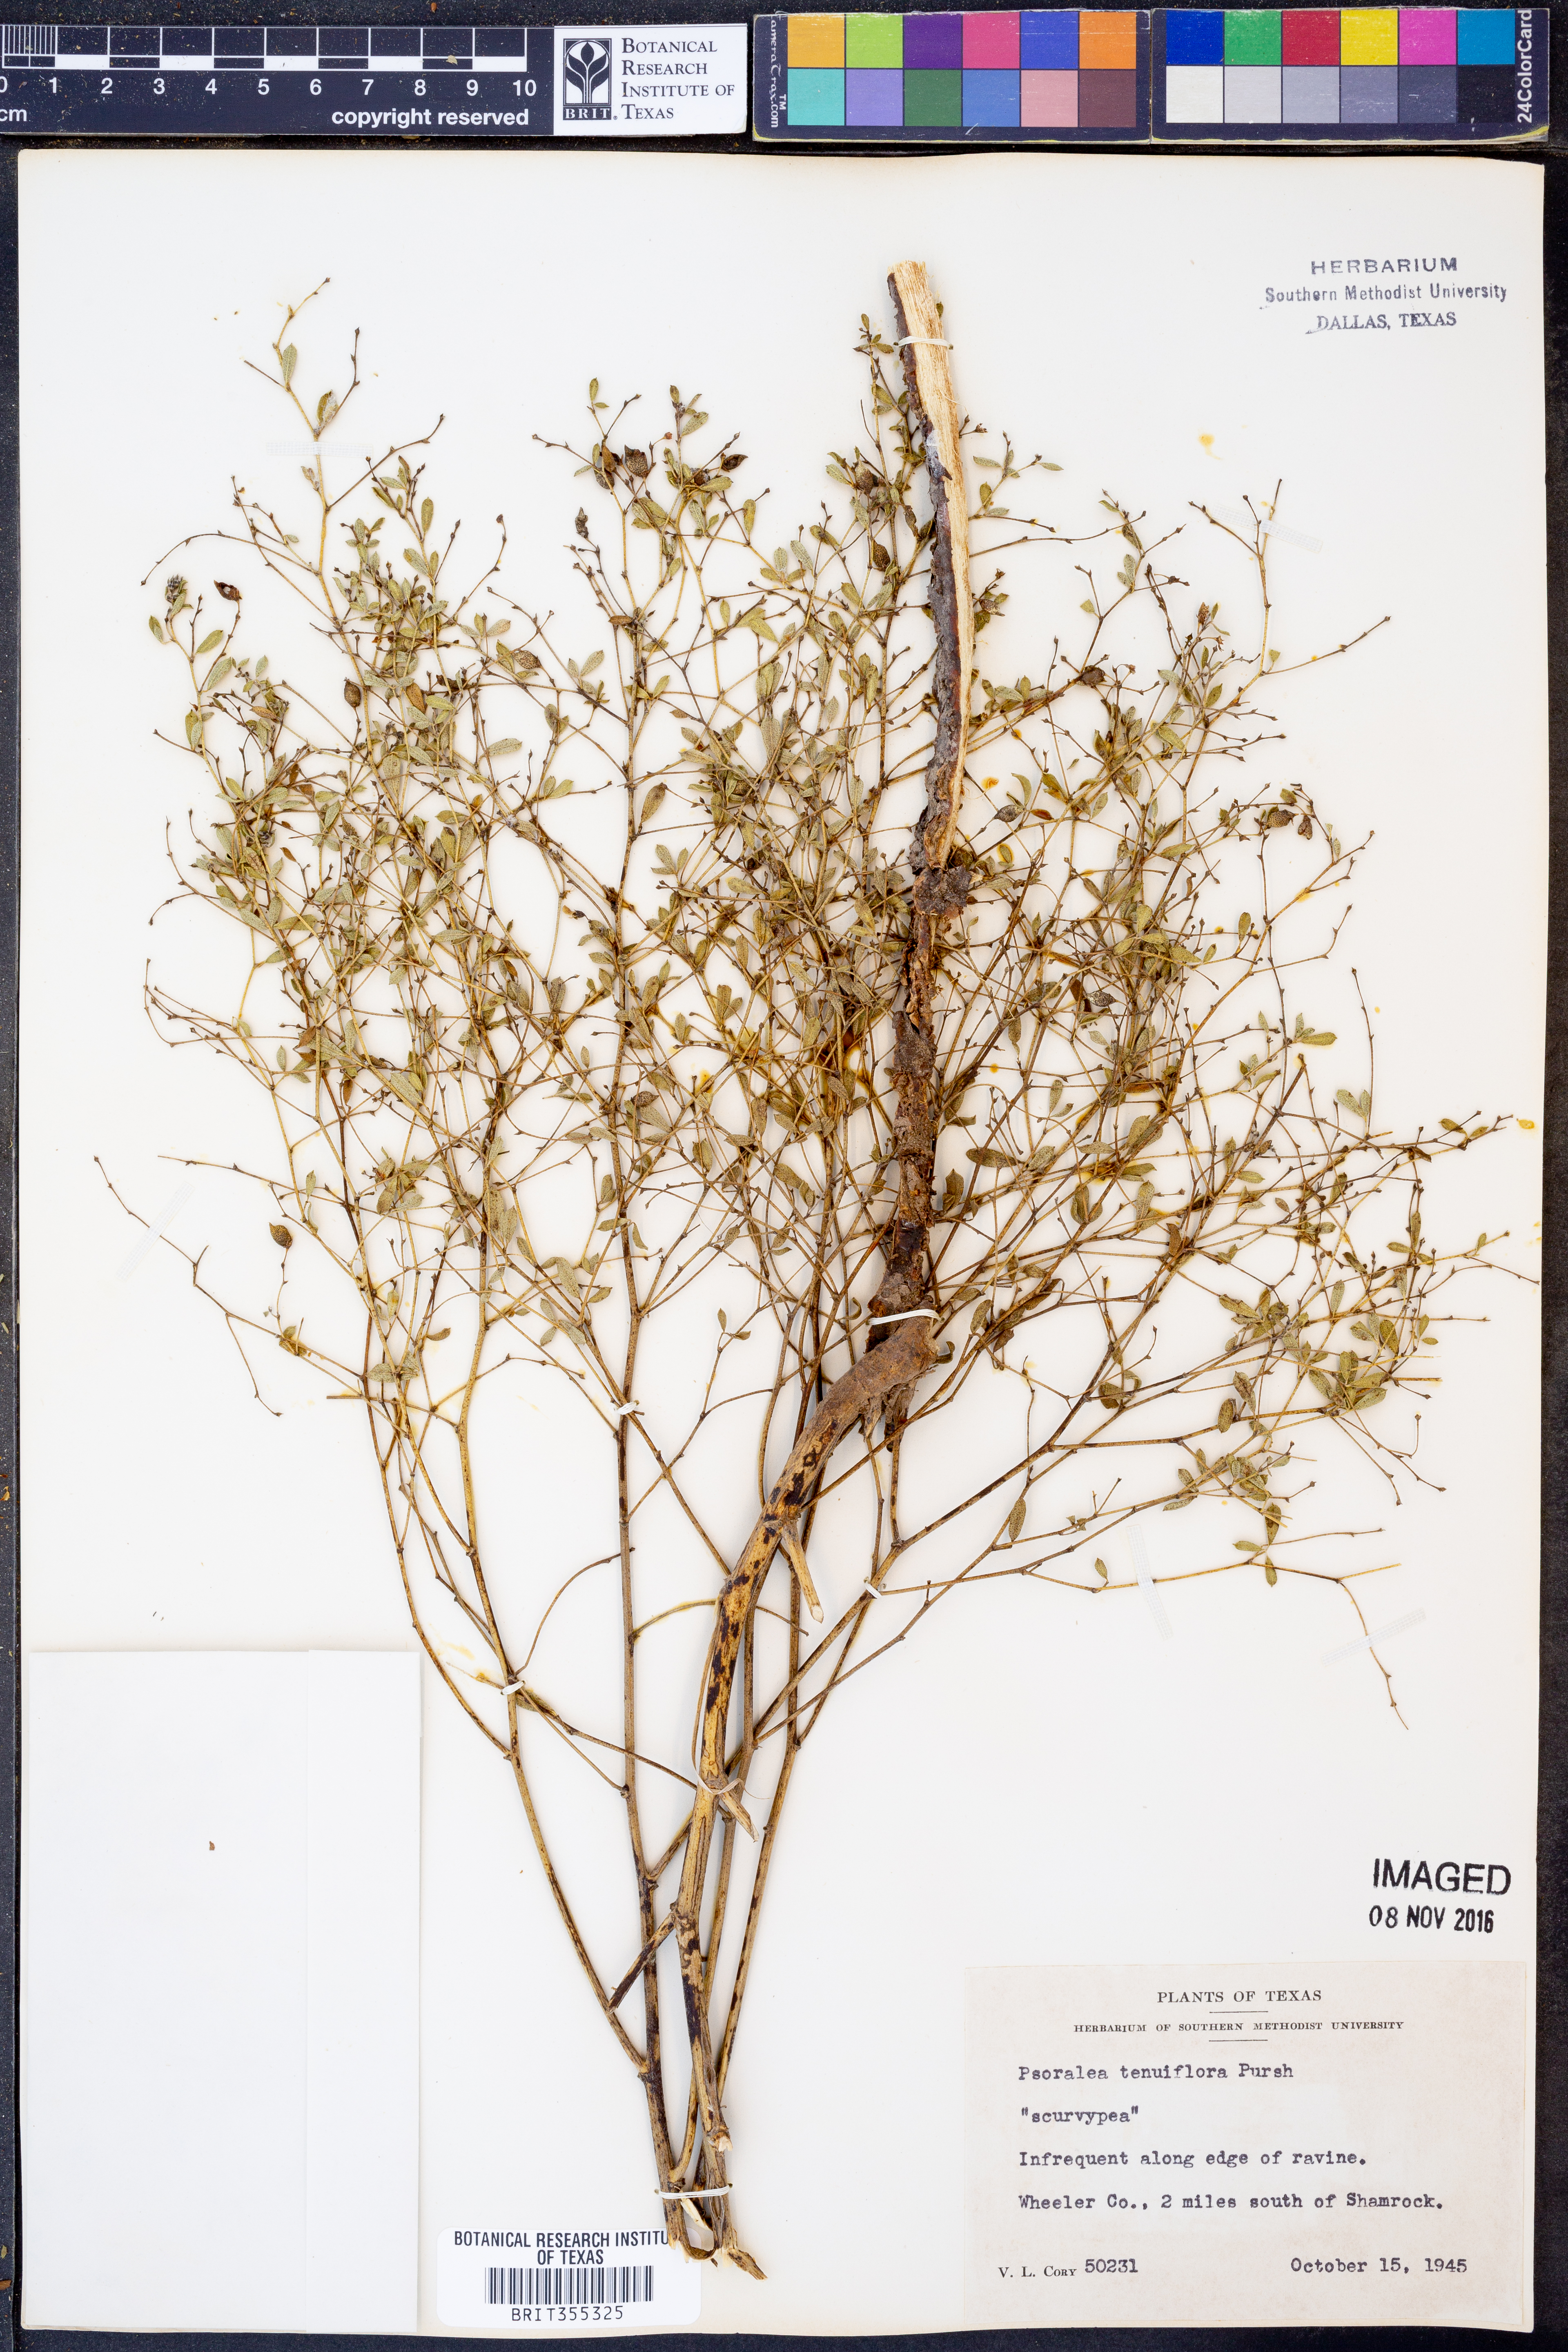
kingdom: Plantae
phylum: Tracheophyta
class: Magnoliopsida
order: Fabales
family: Fabaceae
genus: Pediomelum
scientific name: Pediomelum tenuiflorum
